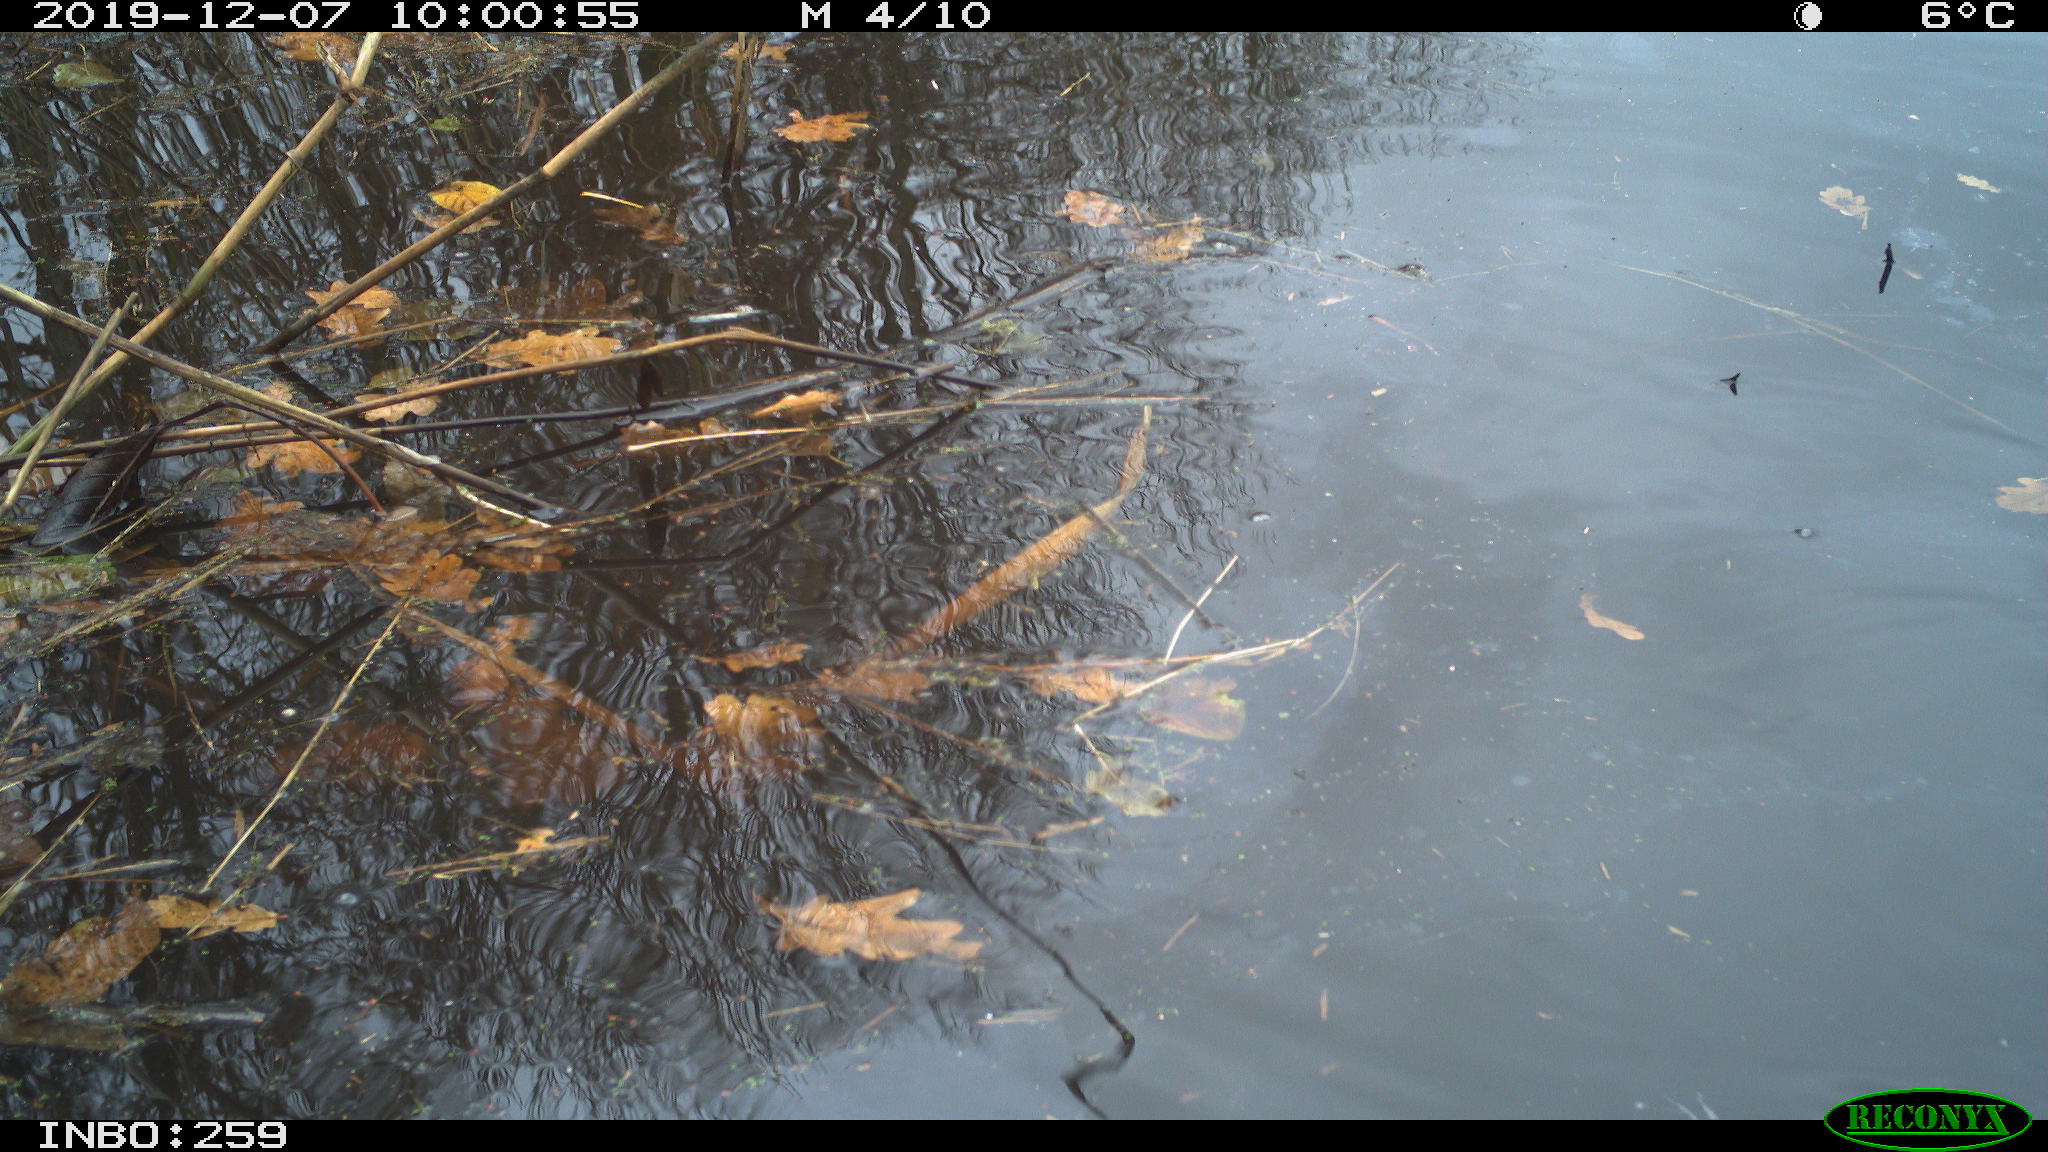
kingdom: Animalia
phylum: Chordata
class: Aves
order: Gruiformes
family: Rallidae
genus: Gallinula
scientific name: Gallinula chloropus
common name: Common moorhen
